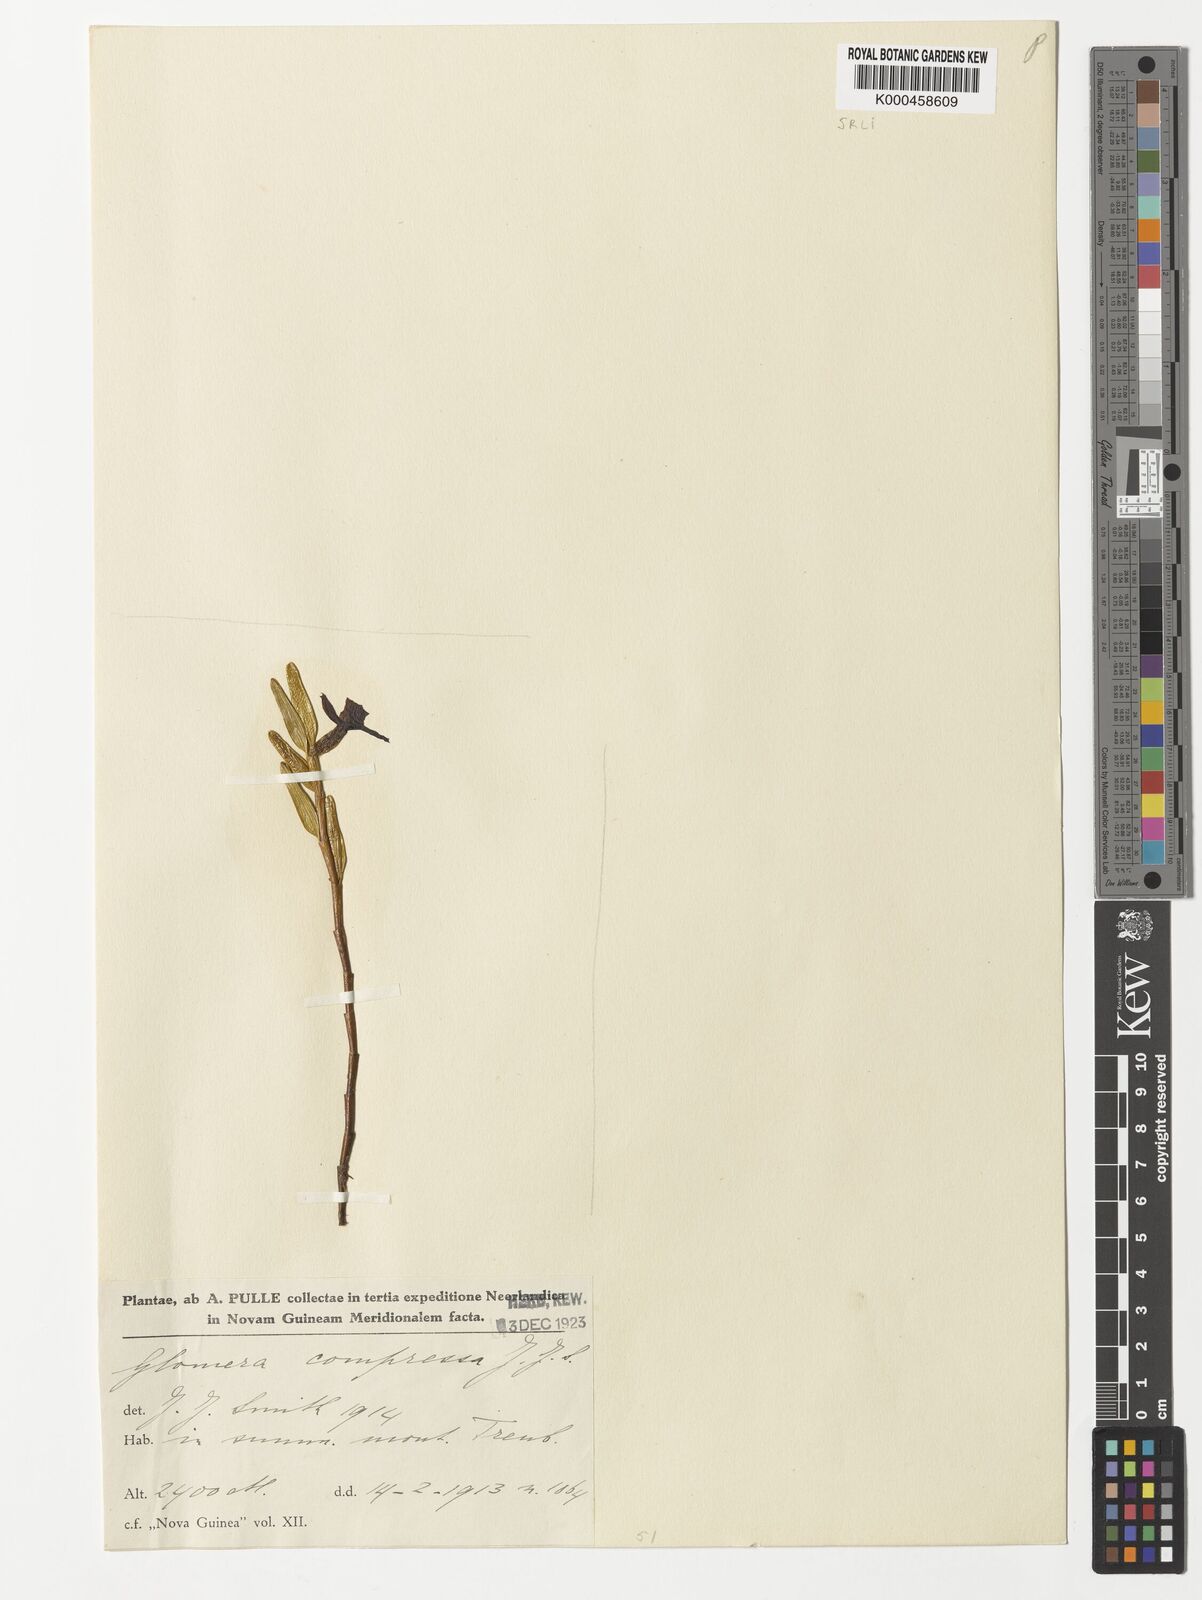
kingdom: Plantae
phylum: Tracheophyta
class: Liliopsida
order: Asparagales
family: Orchidaceae
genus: Glomera
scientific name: Glomera compressa
